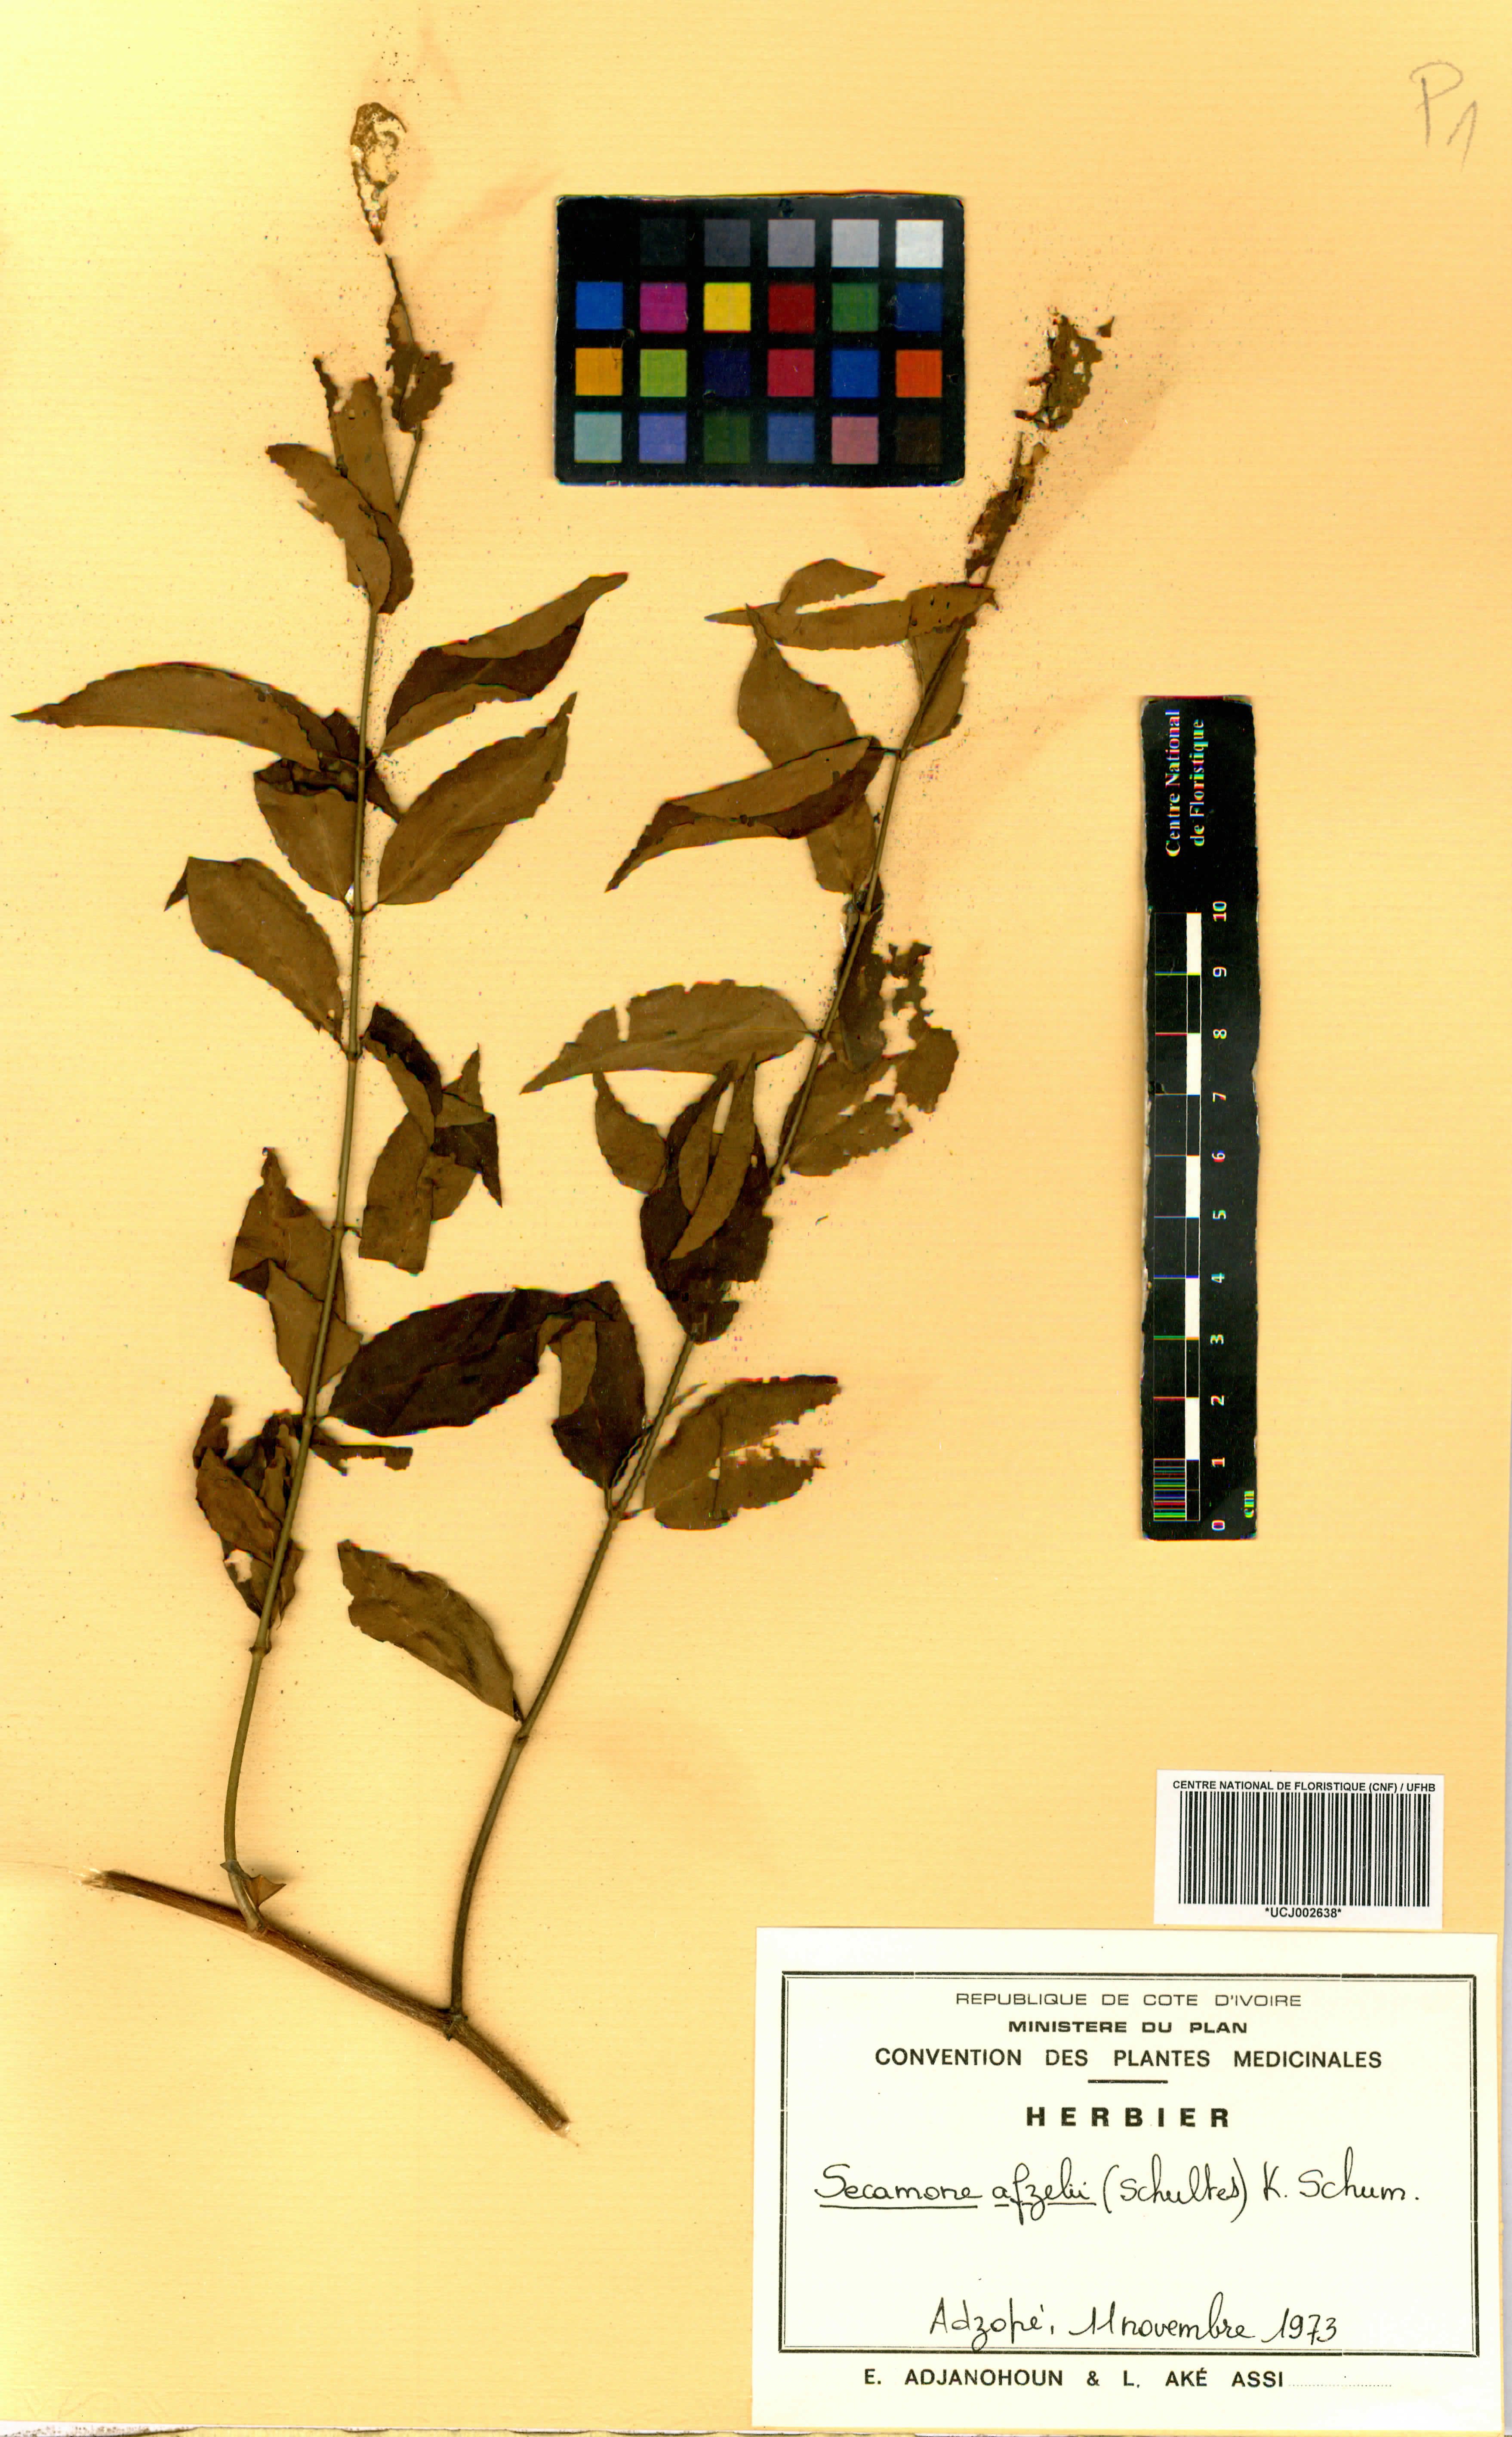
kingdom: Plantae
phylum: Tracheophyta
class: Magnoliopsida
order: Gentianales
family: Apocynaceae
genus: Secamone
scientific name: Secamone afzelii
